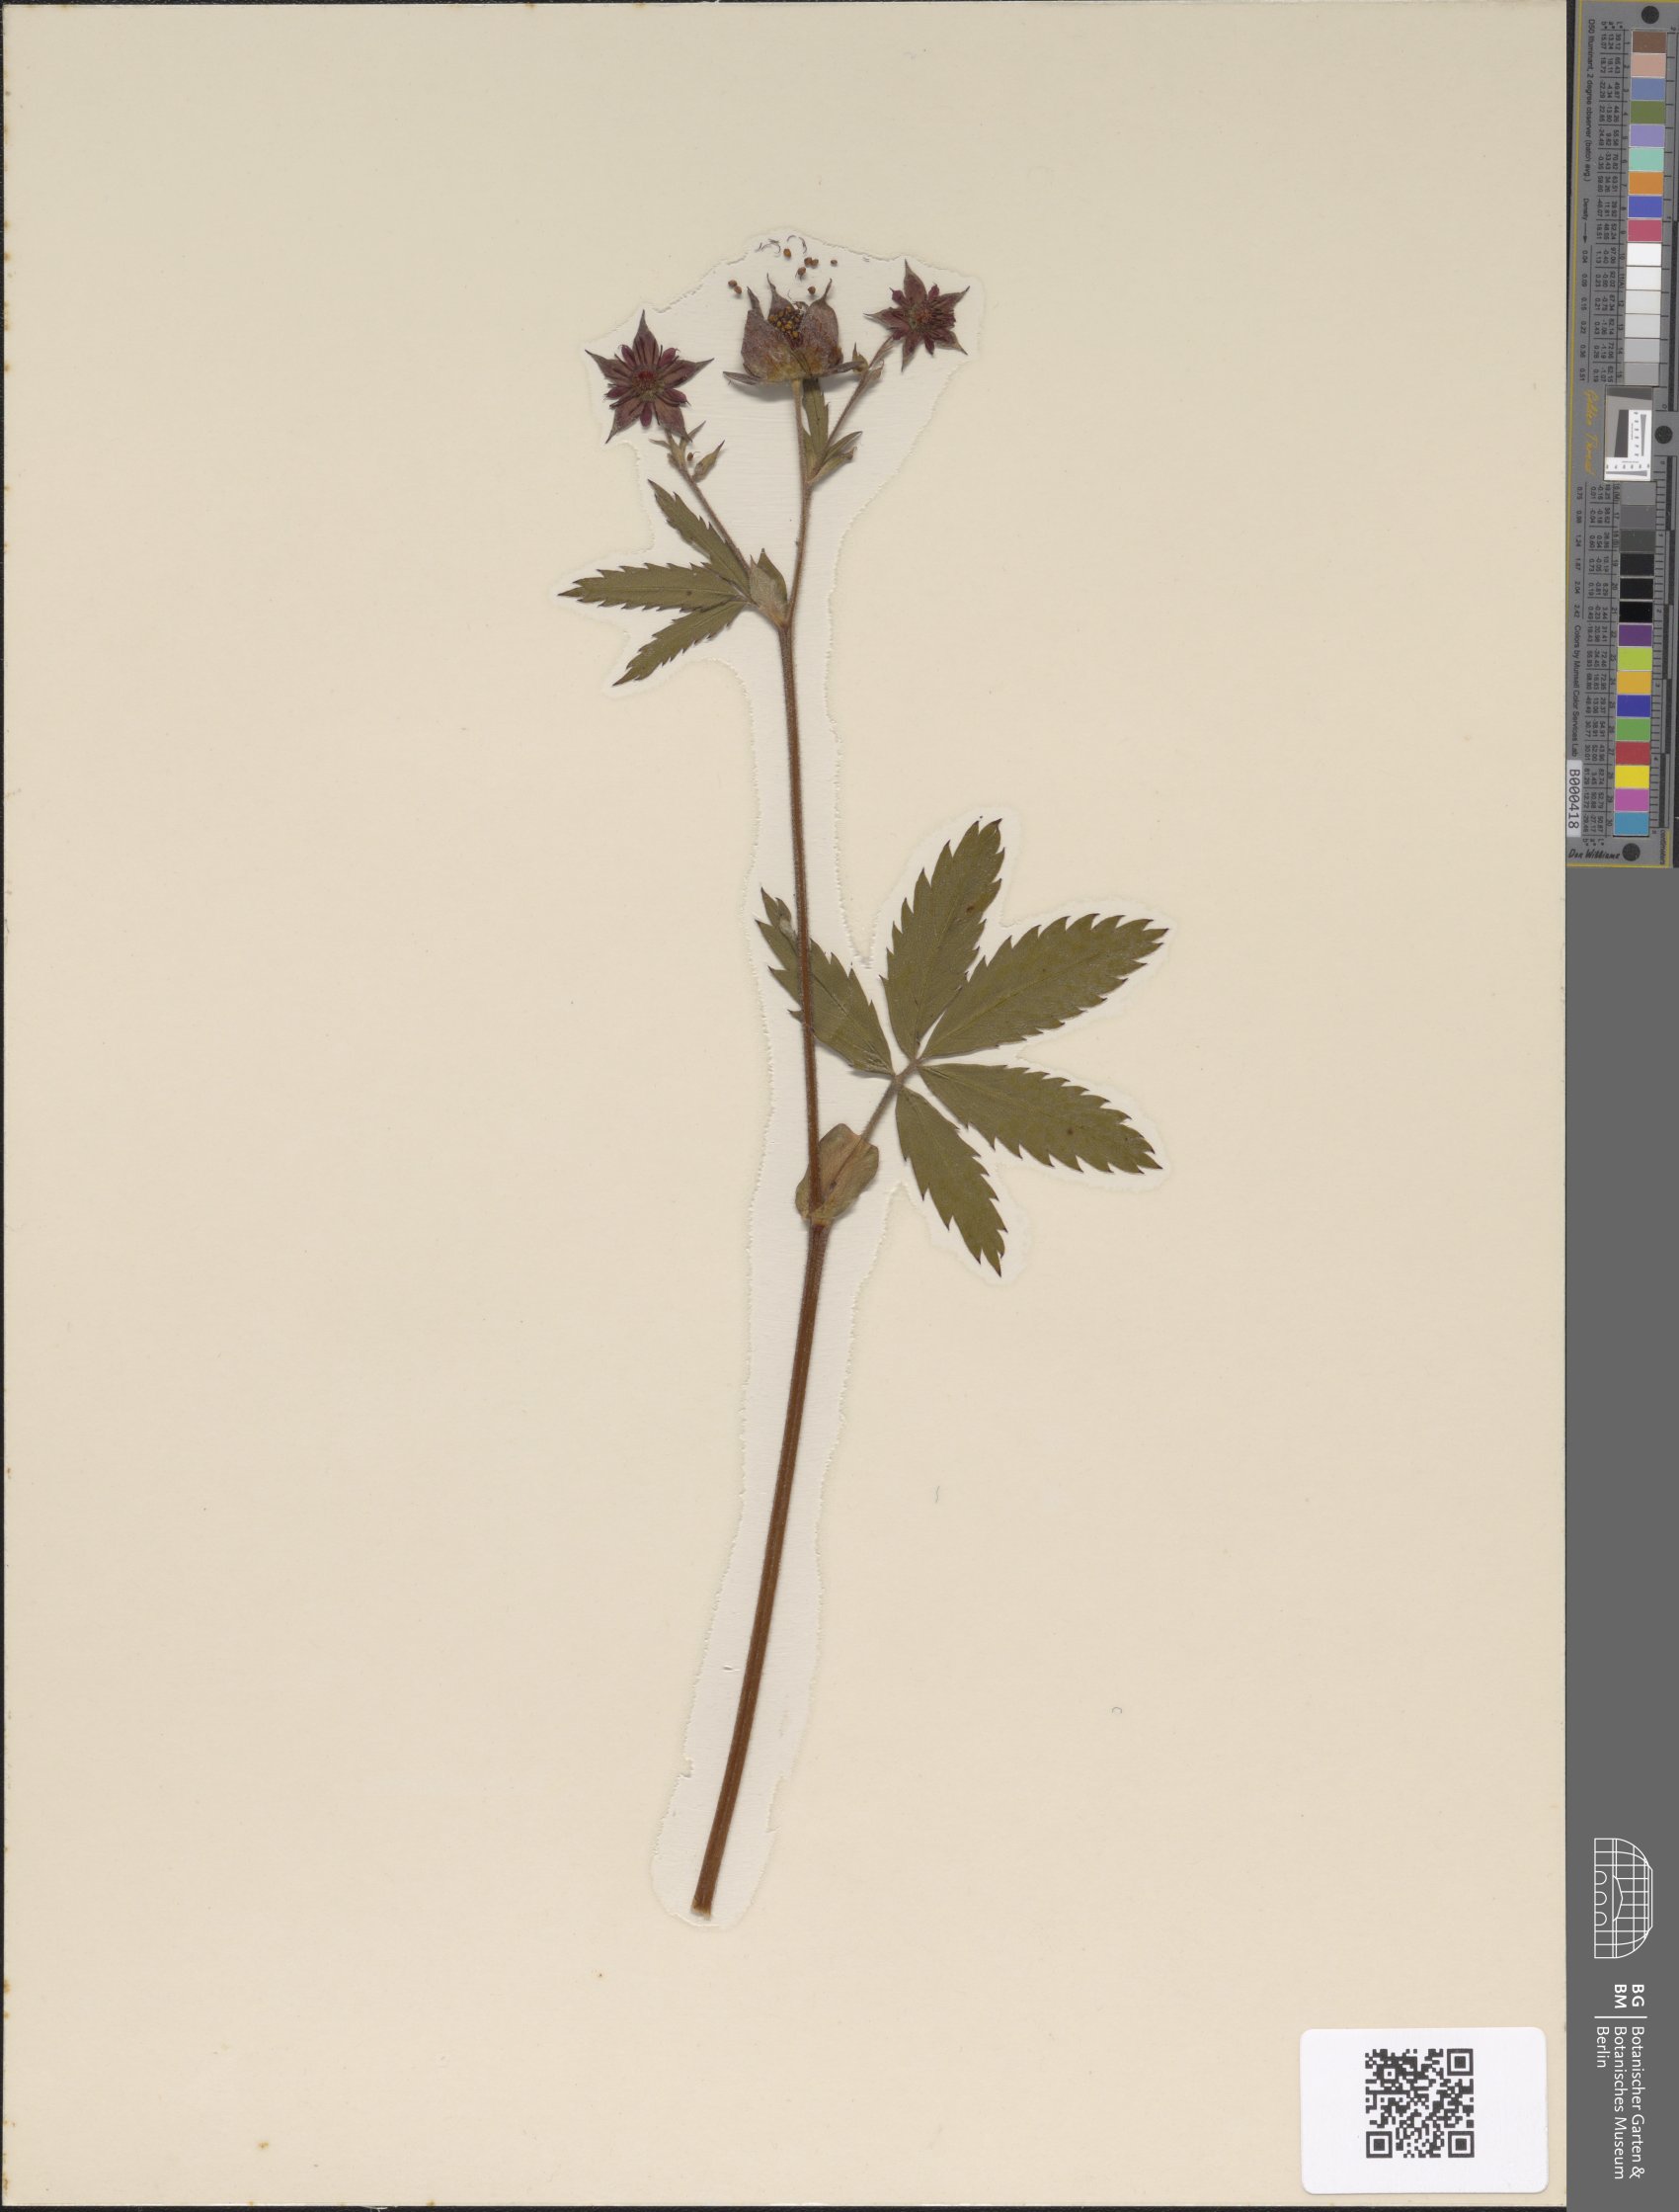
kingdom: Plantae
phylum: Tracheophyta
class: Magnoliopsida
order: Rosales
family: Rosaceae
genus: Comarum
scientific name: Comarum palustre
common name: Marsh cinquefoil
